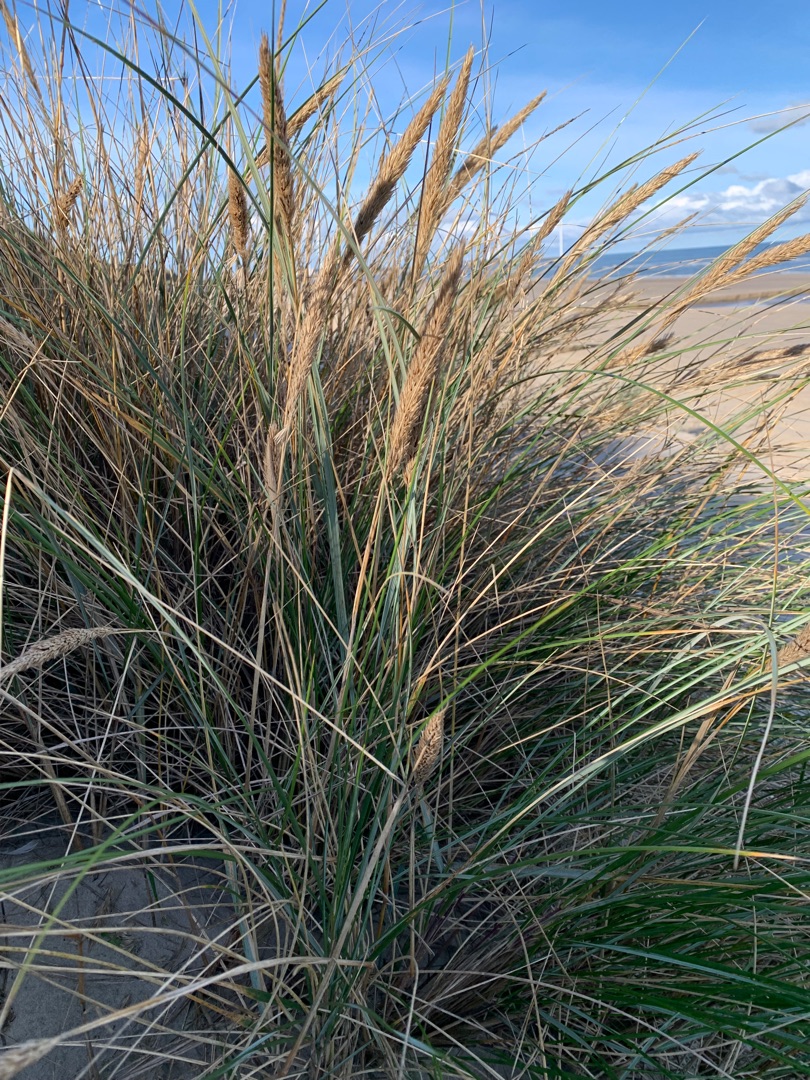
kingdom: Plantae
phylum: Tracheophyta
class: Liliopsida
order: Poales
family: Poaceae
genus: Calamagrostis
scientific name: Calamagrostis arenaria
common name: Sand-hjælme
